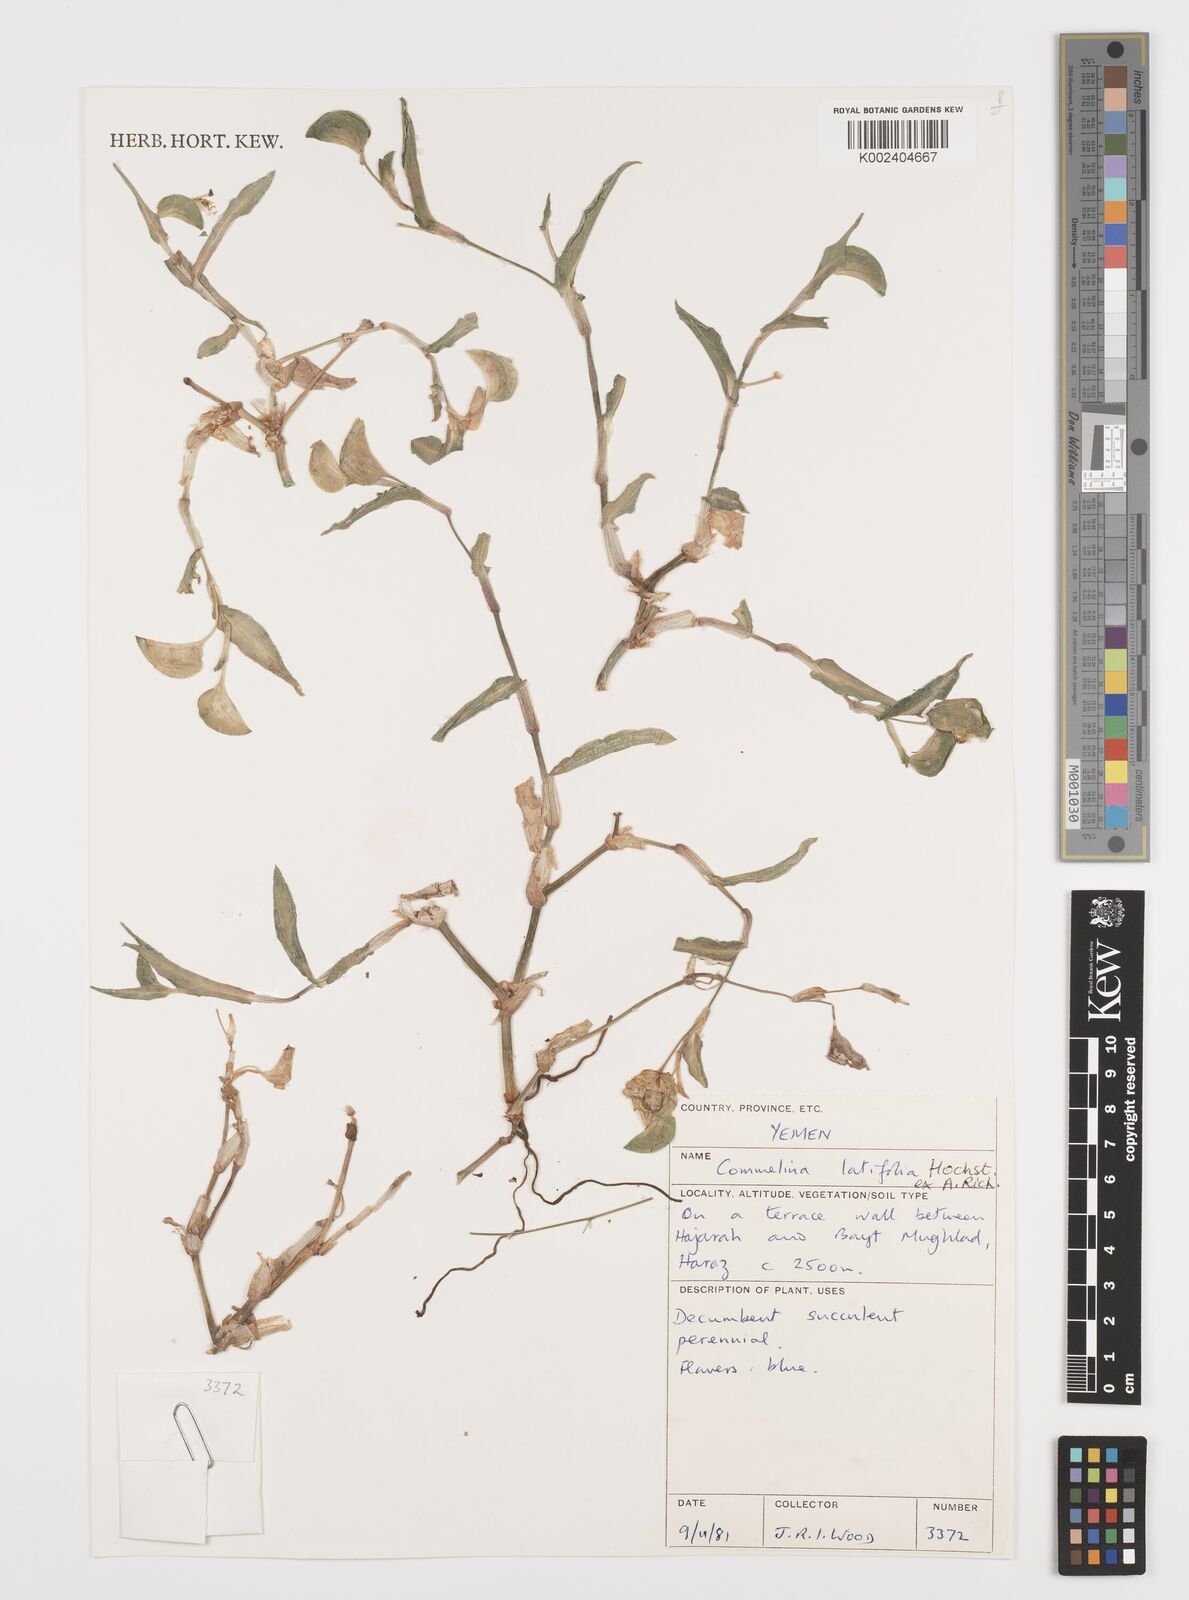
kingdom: Plantae
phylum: Tracheophyta
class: Liliopsida
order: Commelinales
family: Commelinaceae
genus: Commelina
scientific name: Commelina latifolia
